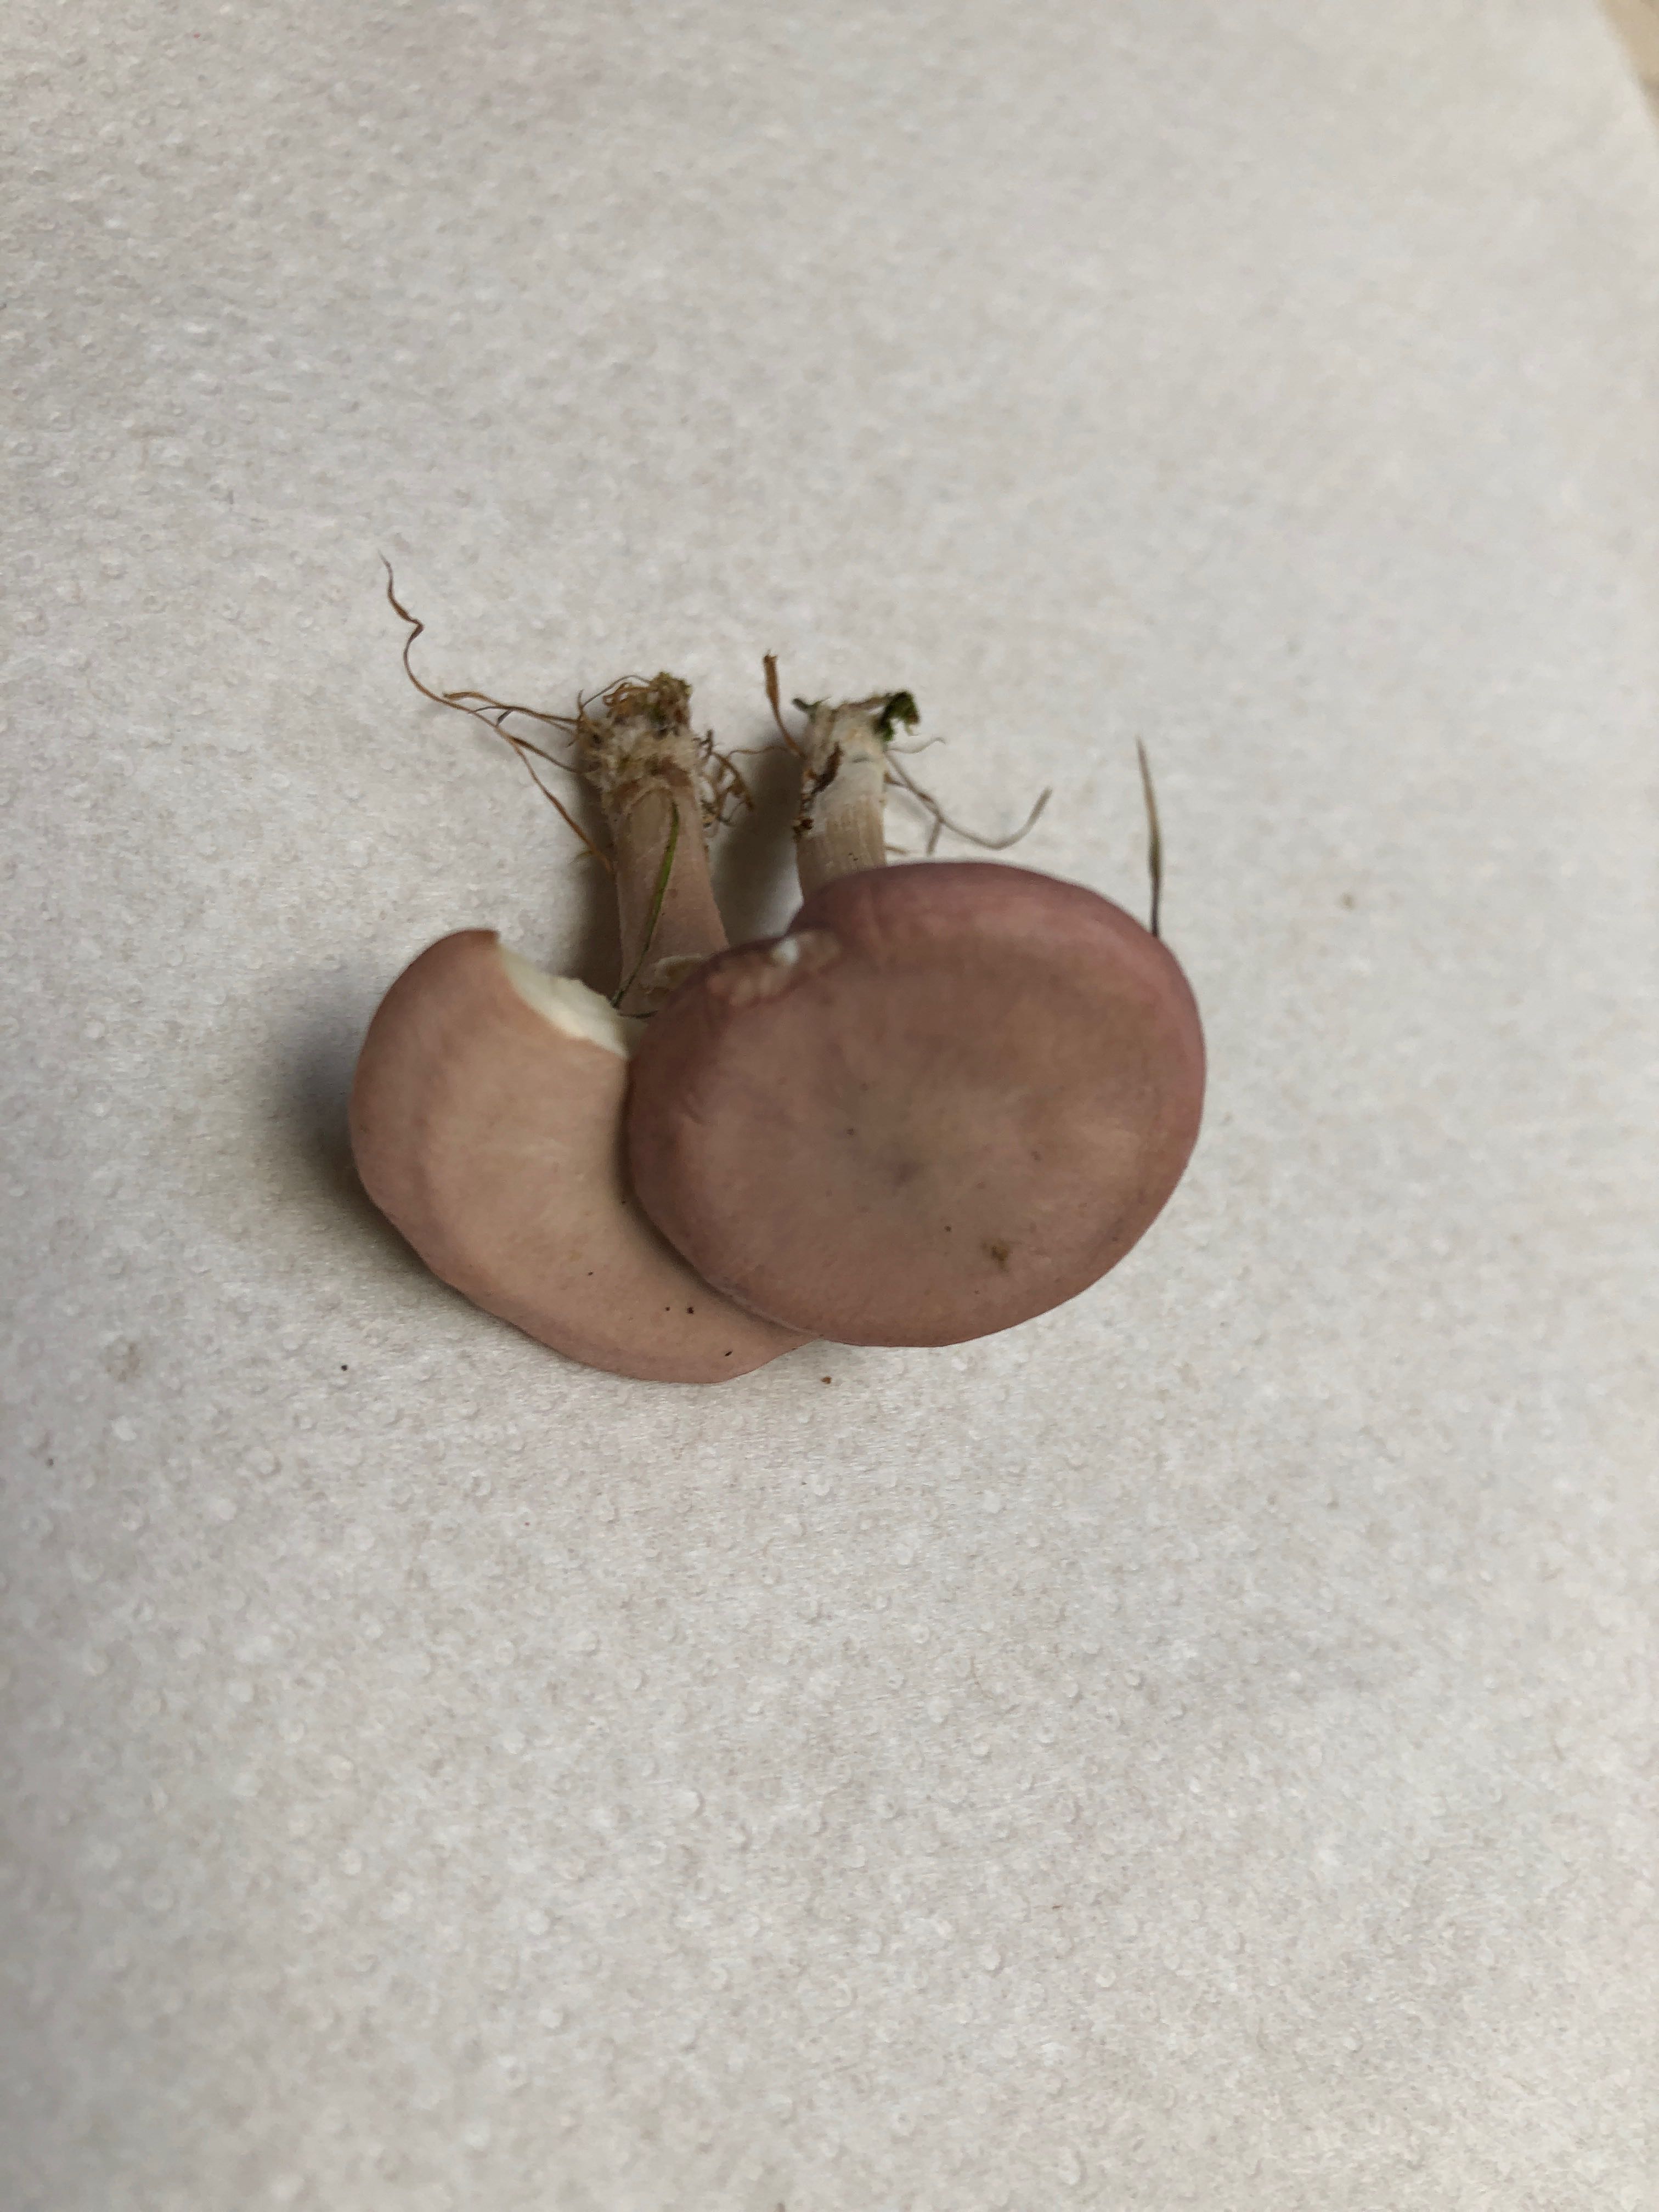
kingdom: Fungi
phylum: Basidiomycota
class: Agaricomycetes
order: Agaricales
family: Lyophyllaceae
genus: Calocybe
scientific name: Calocybe carnea
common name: rosa fagerhat
